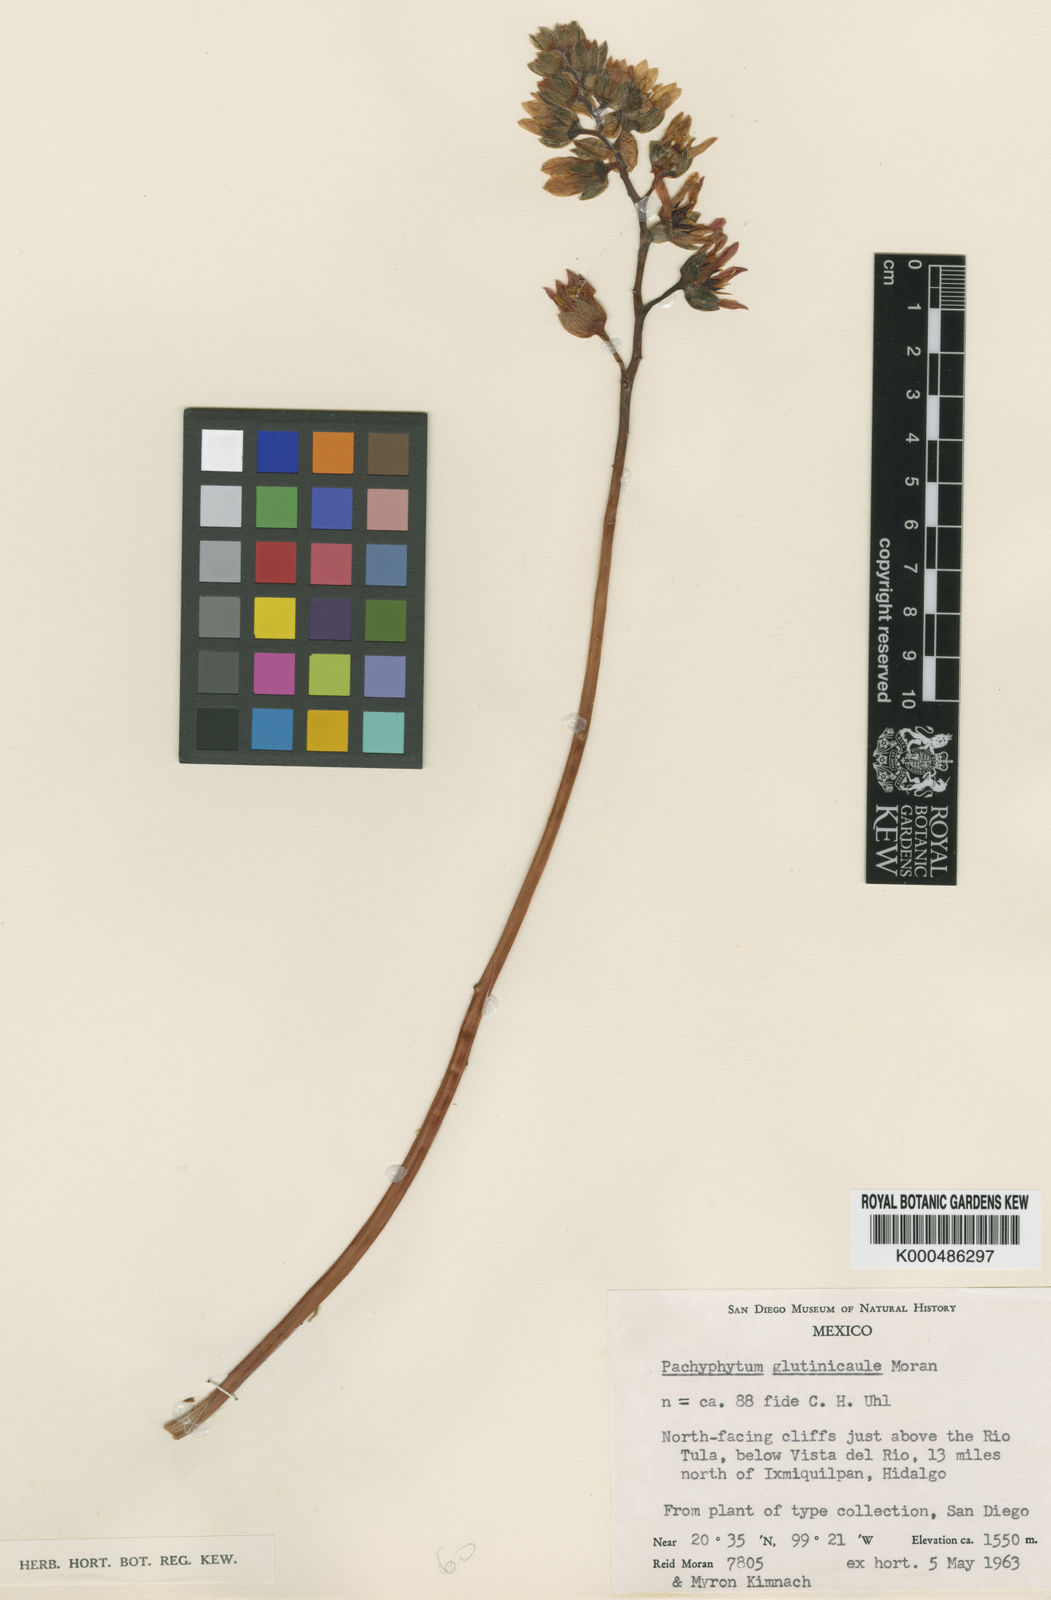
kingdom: Plantae
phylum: Tracheophyta
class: Magnoliopsida
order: Saxifragales
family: Crassulaceae
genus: Pachyphytum
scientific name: Pachyphytum glutinicaule
